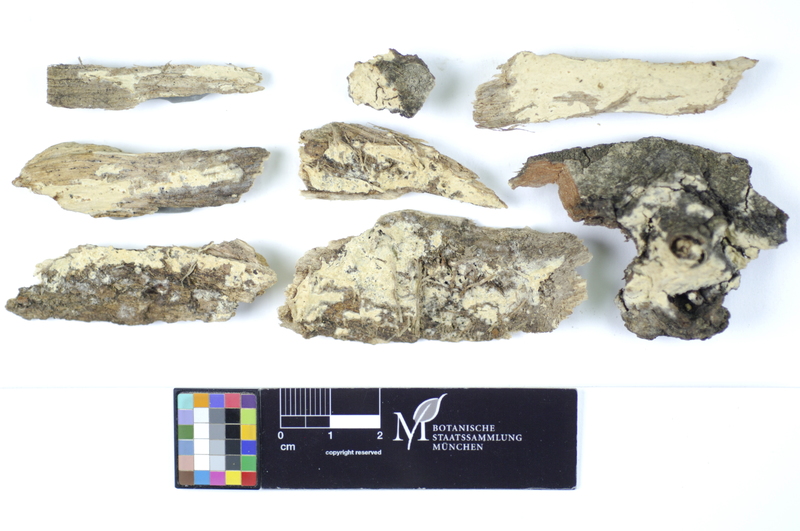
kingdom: Plantae
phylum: Tracheophyta
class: Magnoliopsida
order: Fagales
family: Fagaceae
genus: Quercus
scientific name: Quercus
